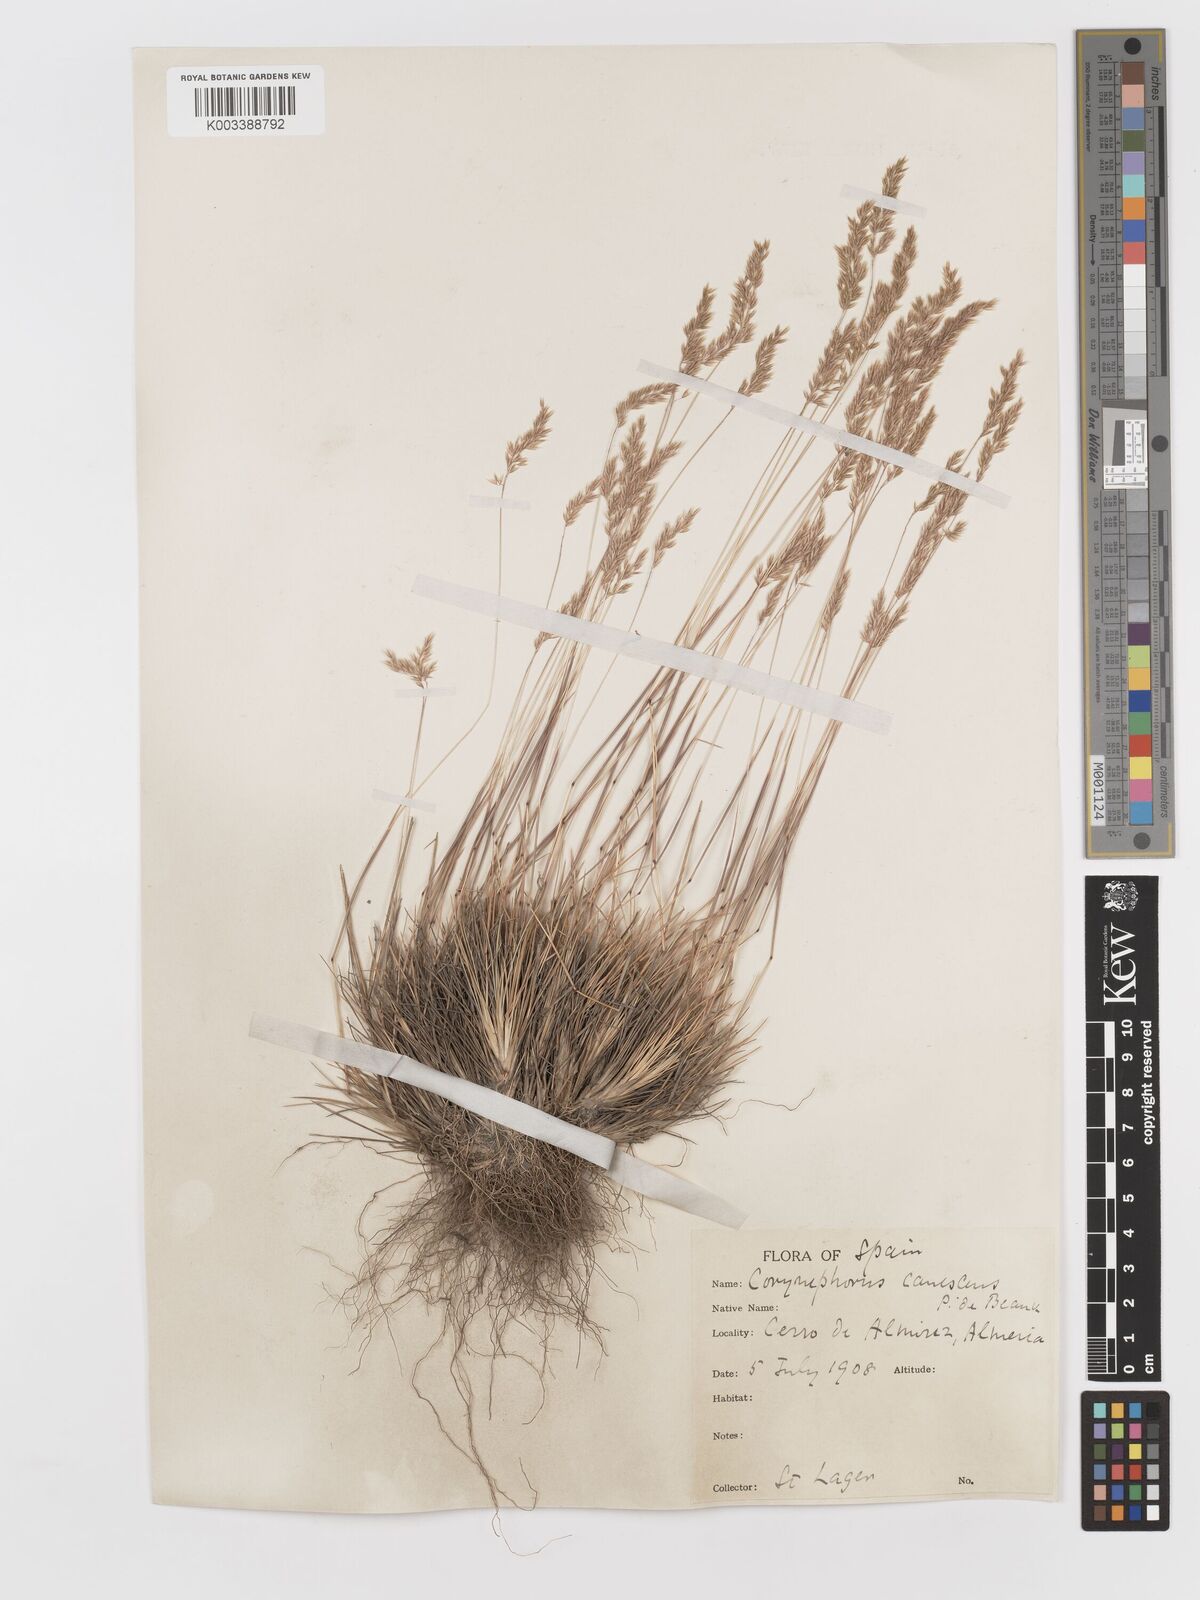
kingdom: Plantae
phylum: Tracheophyta
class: Liliopsida
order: Poales
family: Poaceae
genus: Corynephorus
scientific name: Corynephorus canescens
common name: Grey hair-grass
